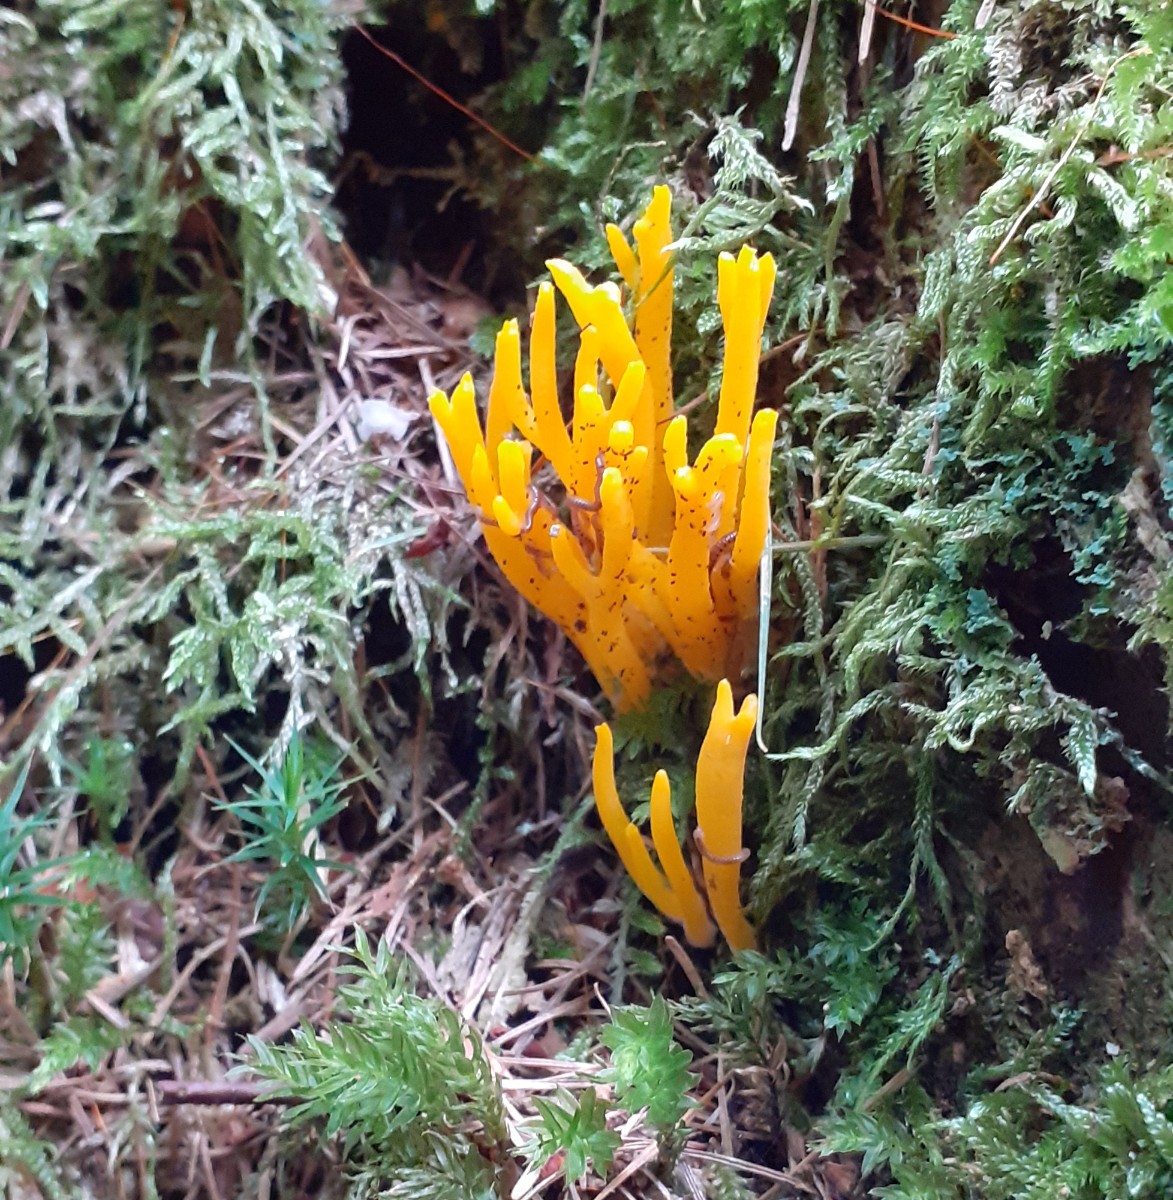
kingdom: Fungi
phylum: Basidiomycota
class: Dacrymycetes
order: Dacrymycetales
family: Dacrymycetaceae
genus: Calocera
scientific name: Calocera viscosa
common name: almindelig guldgaffel
